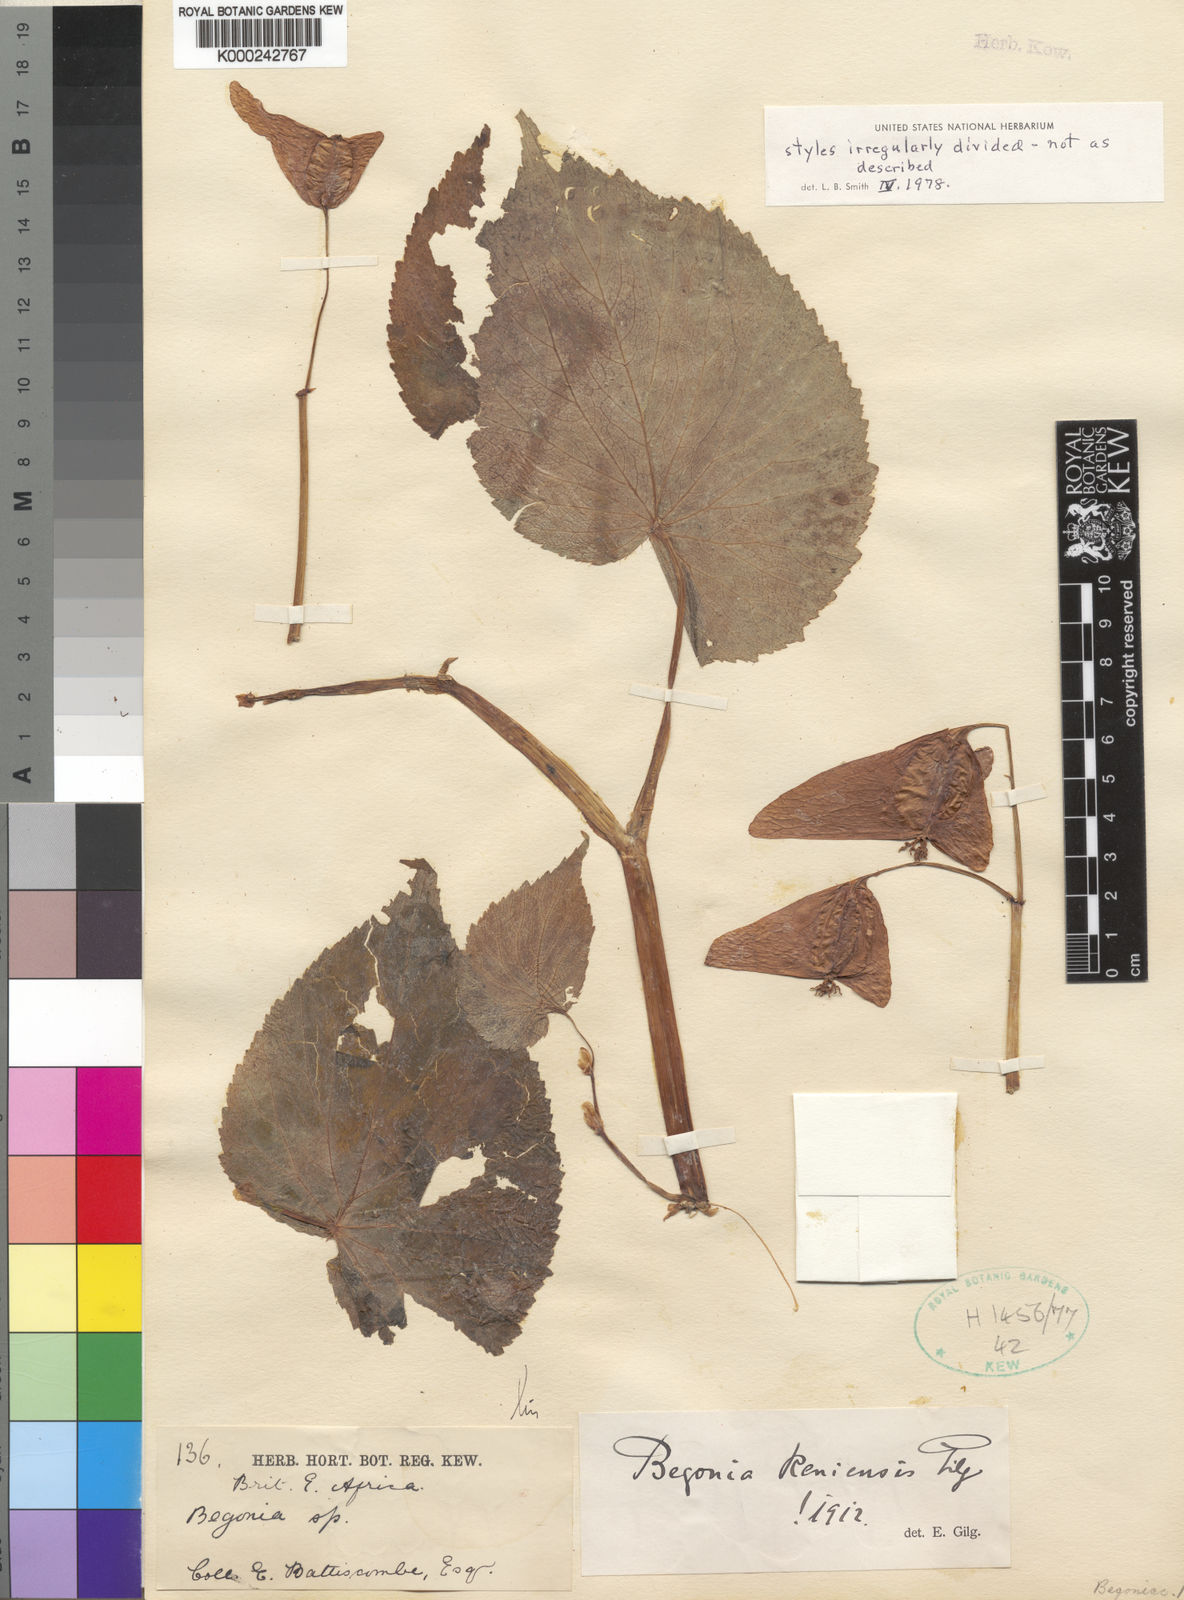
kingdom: Plantae
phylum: Tracheophyta
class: Magnoliopsida
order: Cucurbitales
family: Begoniaceae
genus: Begonia
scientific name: Begonia
